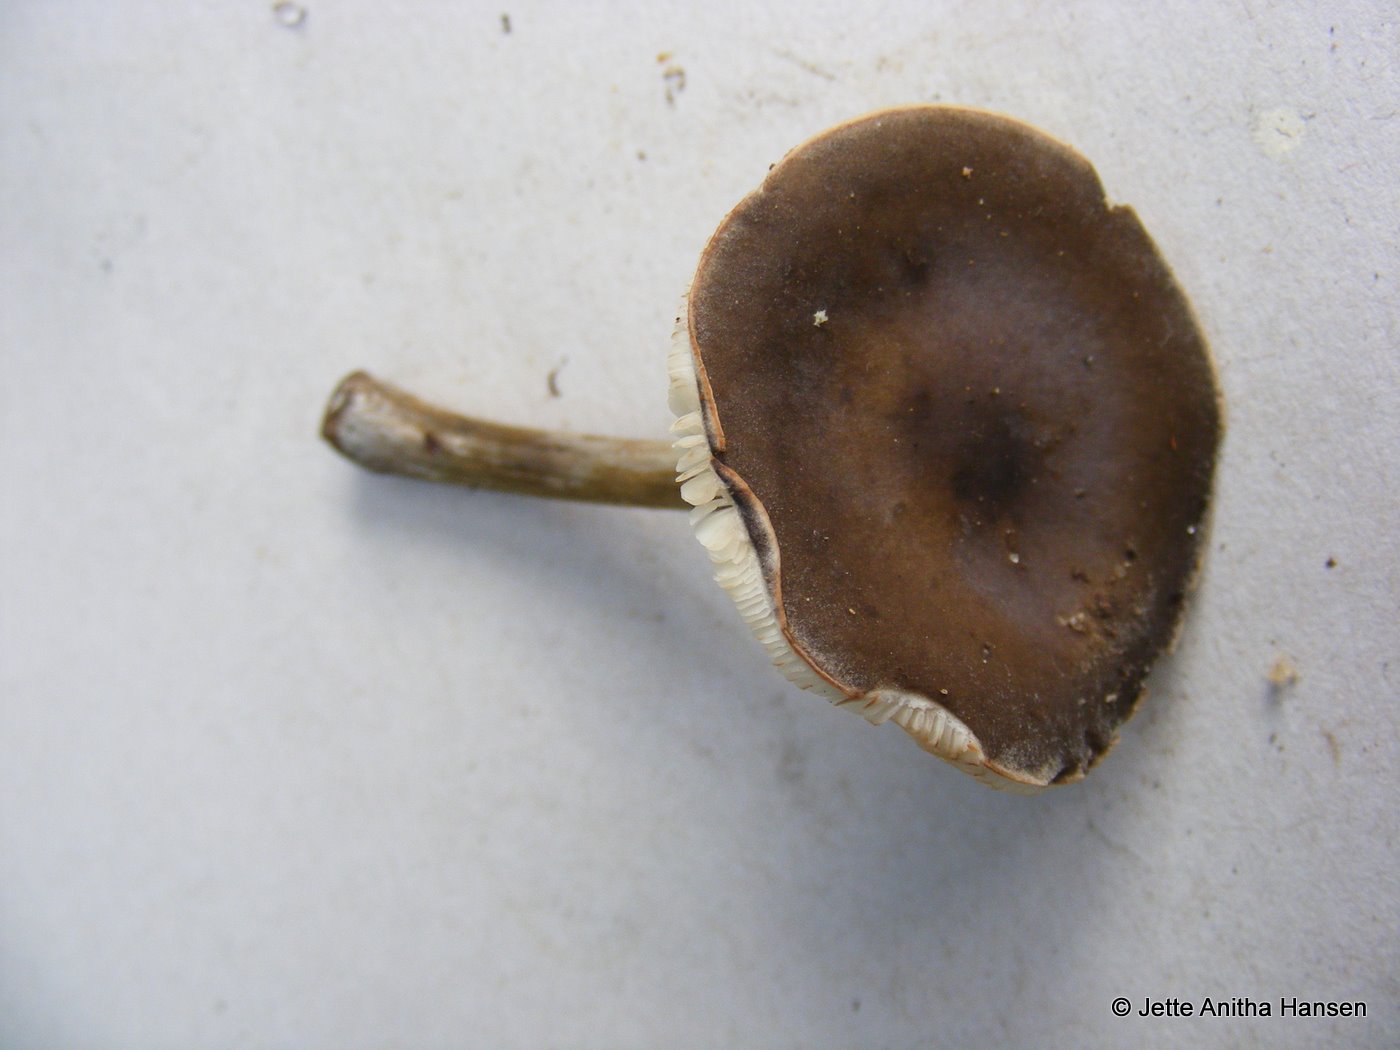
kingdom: Fungi
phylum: Basidiomycota
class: Agaricomycetes
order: Agaricales
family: Tricholomataceae
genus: Melanoleuca
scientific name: Melanoleuca polioleuca
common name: almindelig munkehat
